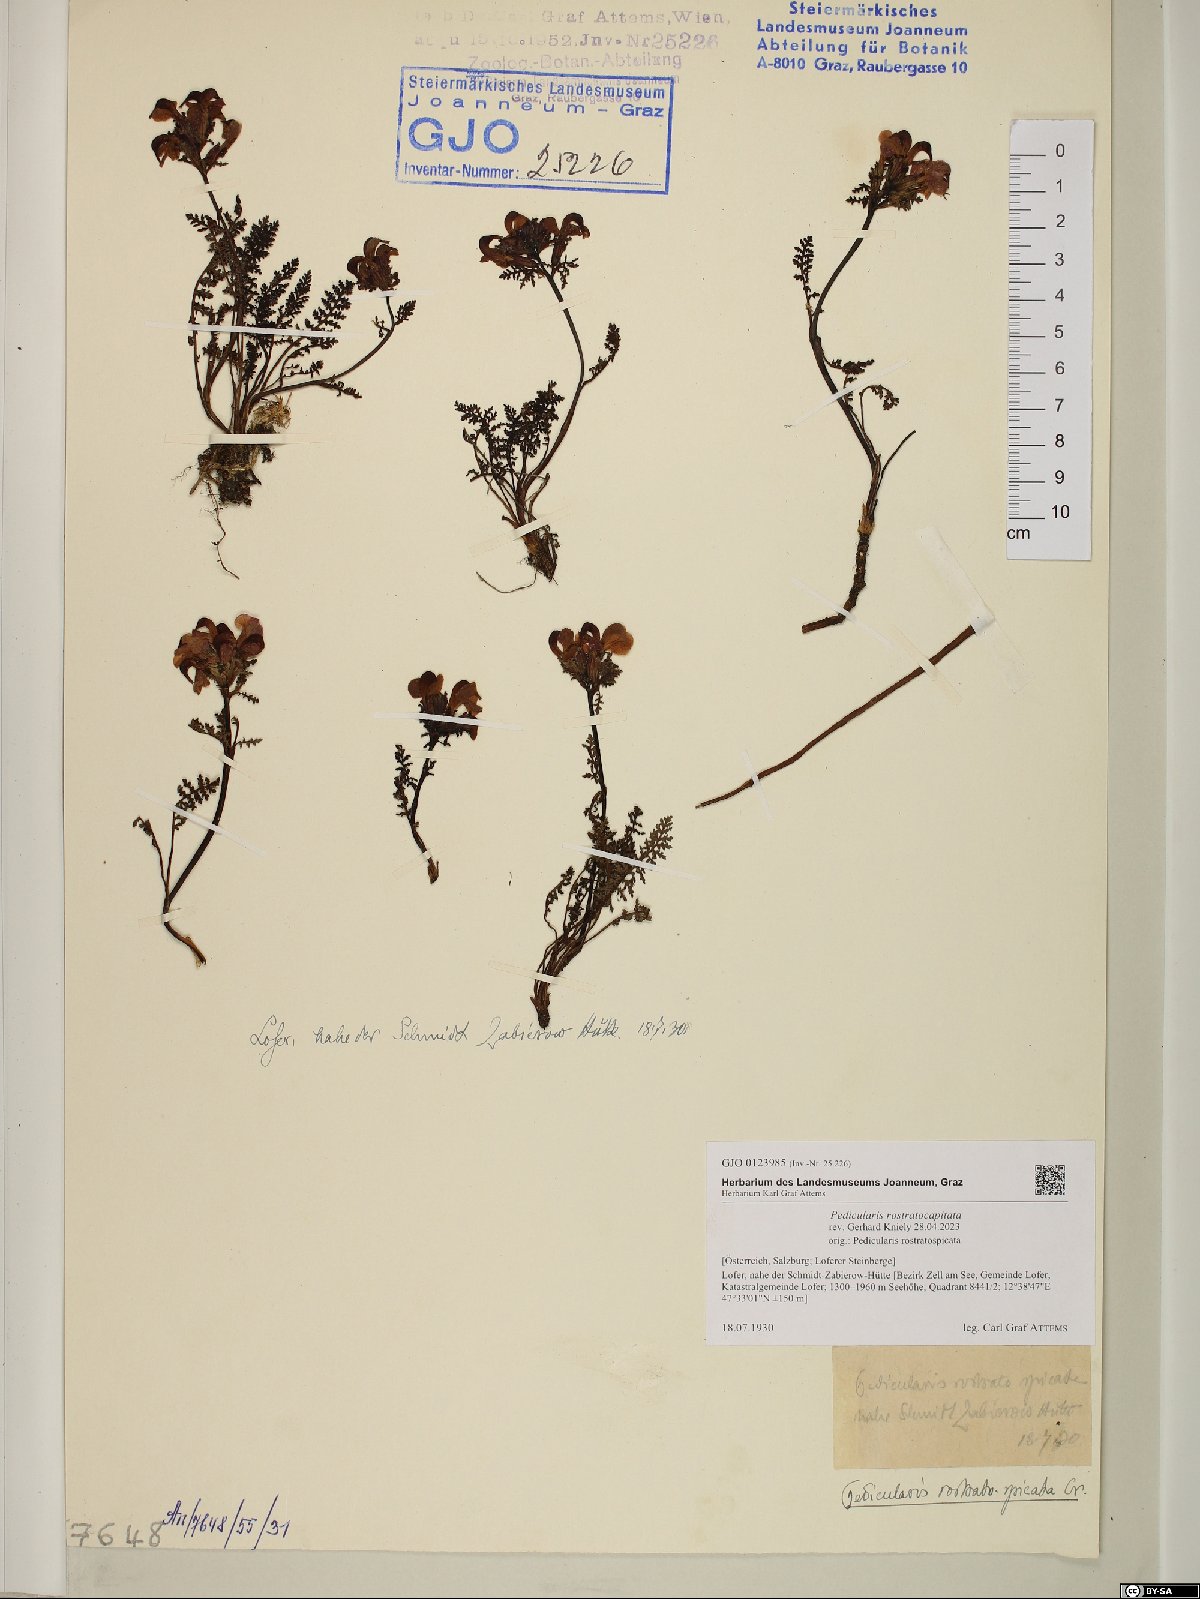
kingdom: Plantae
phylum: Tracheophyta
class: Magnoliopsida
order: Lamiales
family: Orobanchaceae
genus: Pedicularis
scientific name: Pedicularis rostratocapitata
